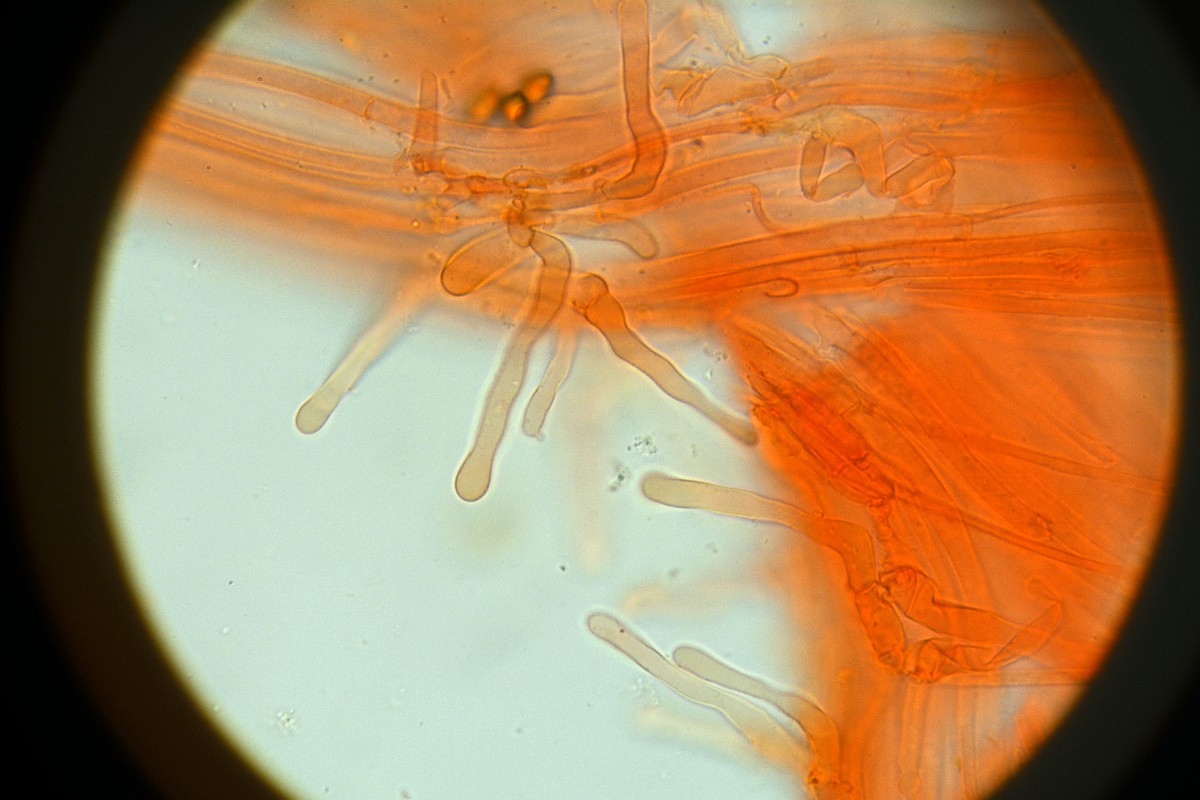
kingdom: Fungi
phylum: Basidiomycota
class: Agaricomycetes
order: Agaricales
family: Hymenogastraceae
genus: Galerina
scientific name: Galerina
